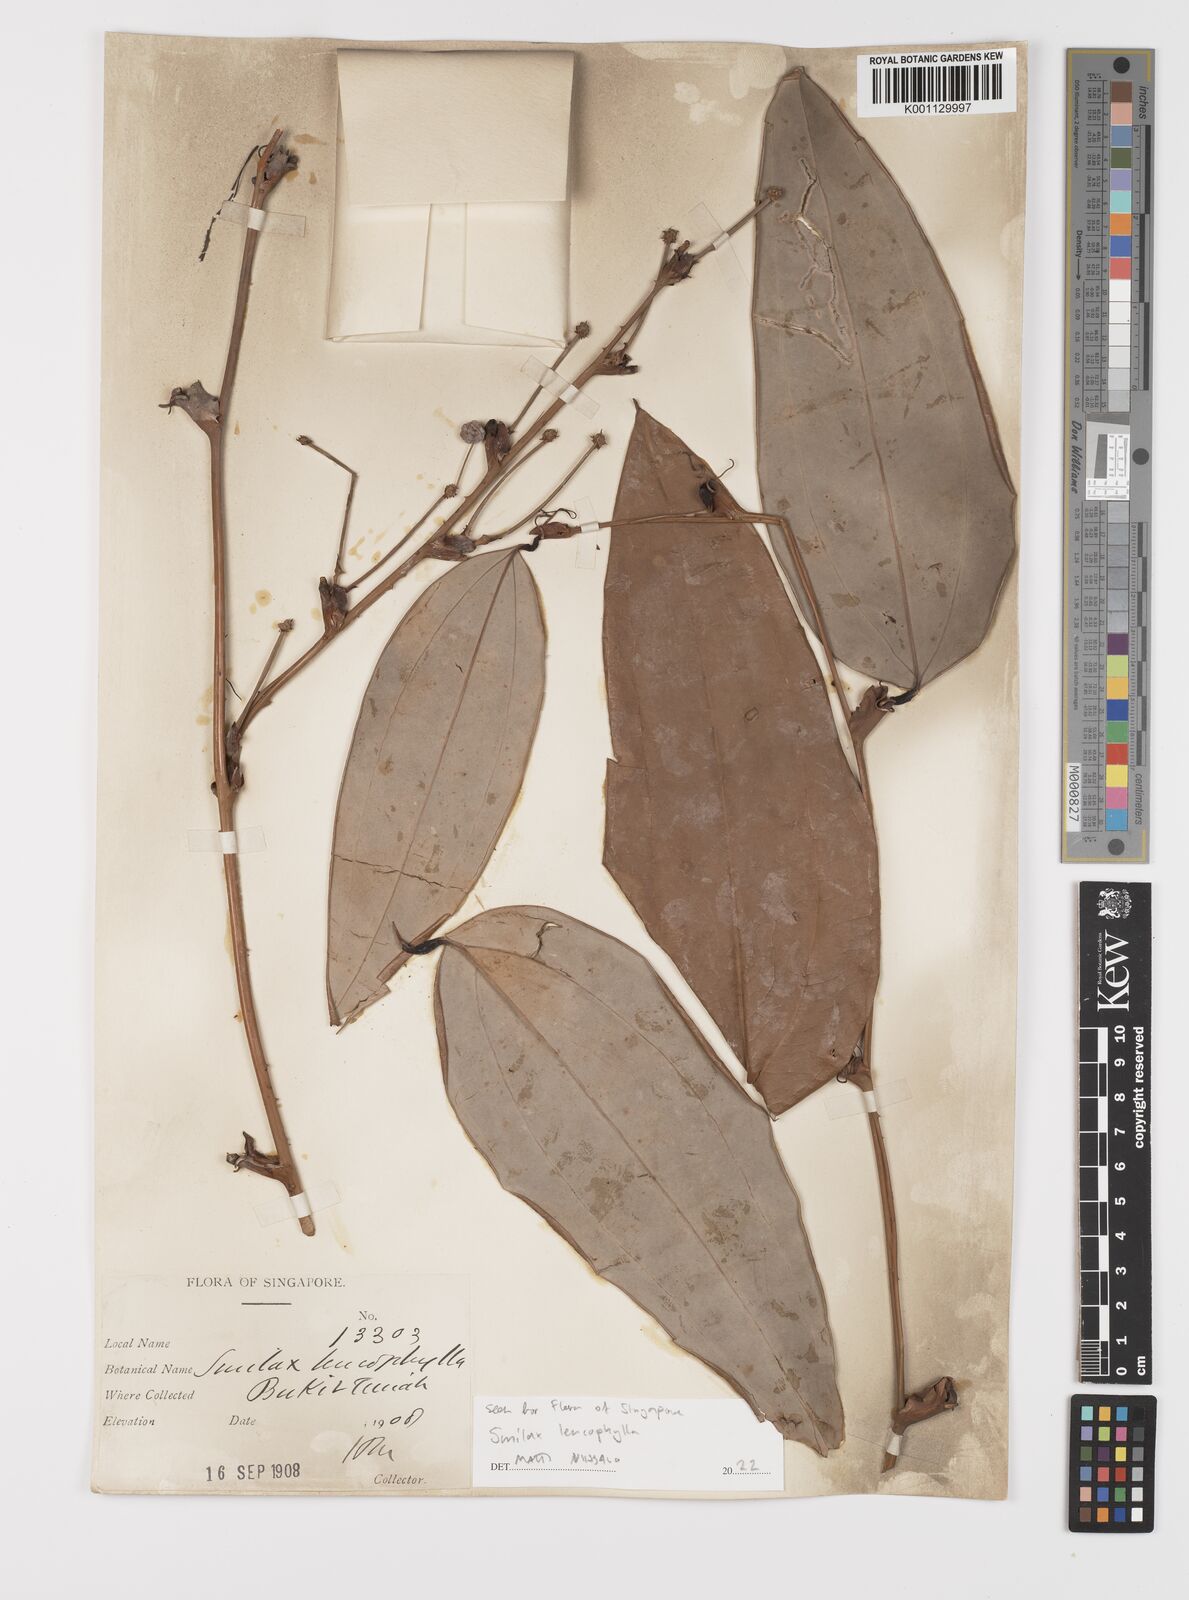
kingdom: Plantae
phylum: Tracheophyta
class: Liliopsida
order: Liliales
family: Smilacaceae
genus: Smilax
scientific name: Smilax leucophylla
